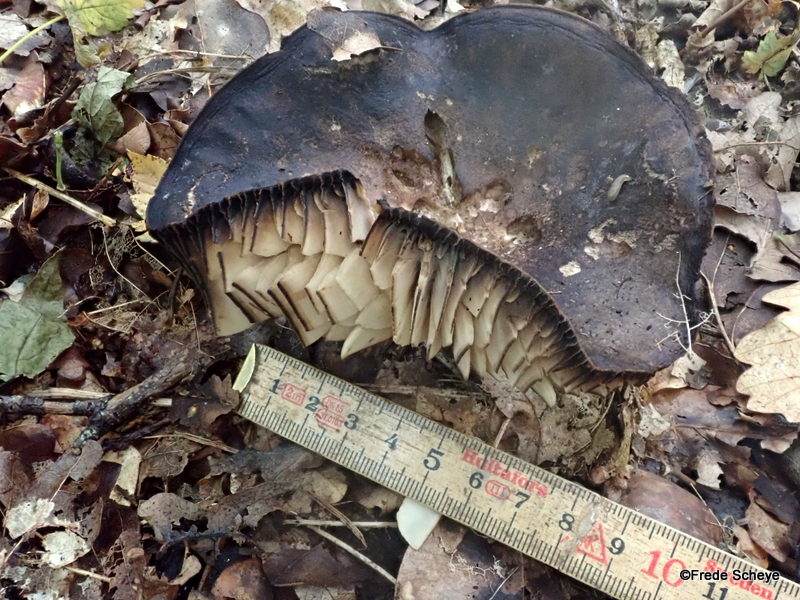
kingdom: Fungi
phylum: Basidiomycota
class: Agaricomycetes
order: Russulales
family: Russulaceae
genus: Russula
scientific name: Russula adusta
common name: sværtende skørhat
